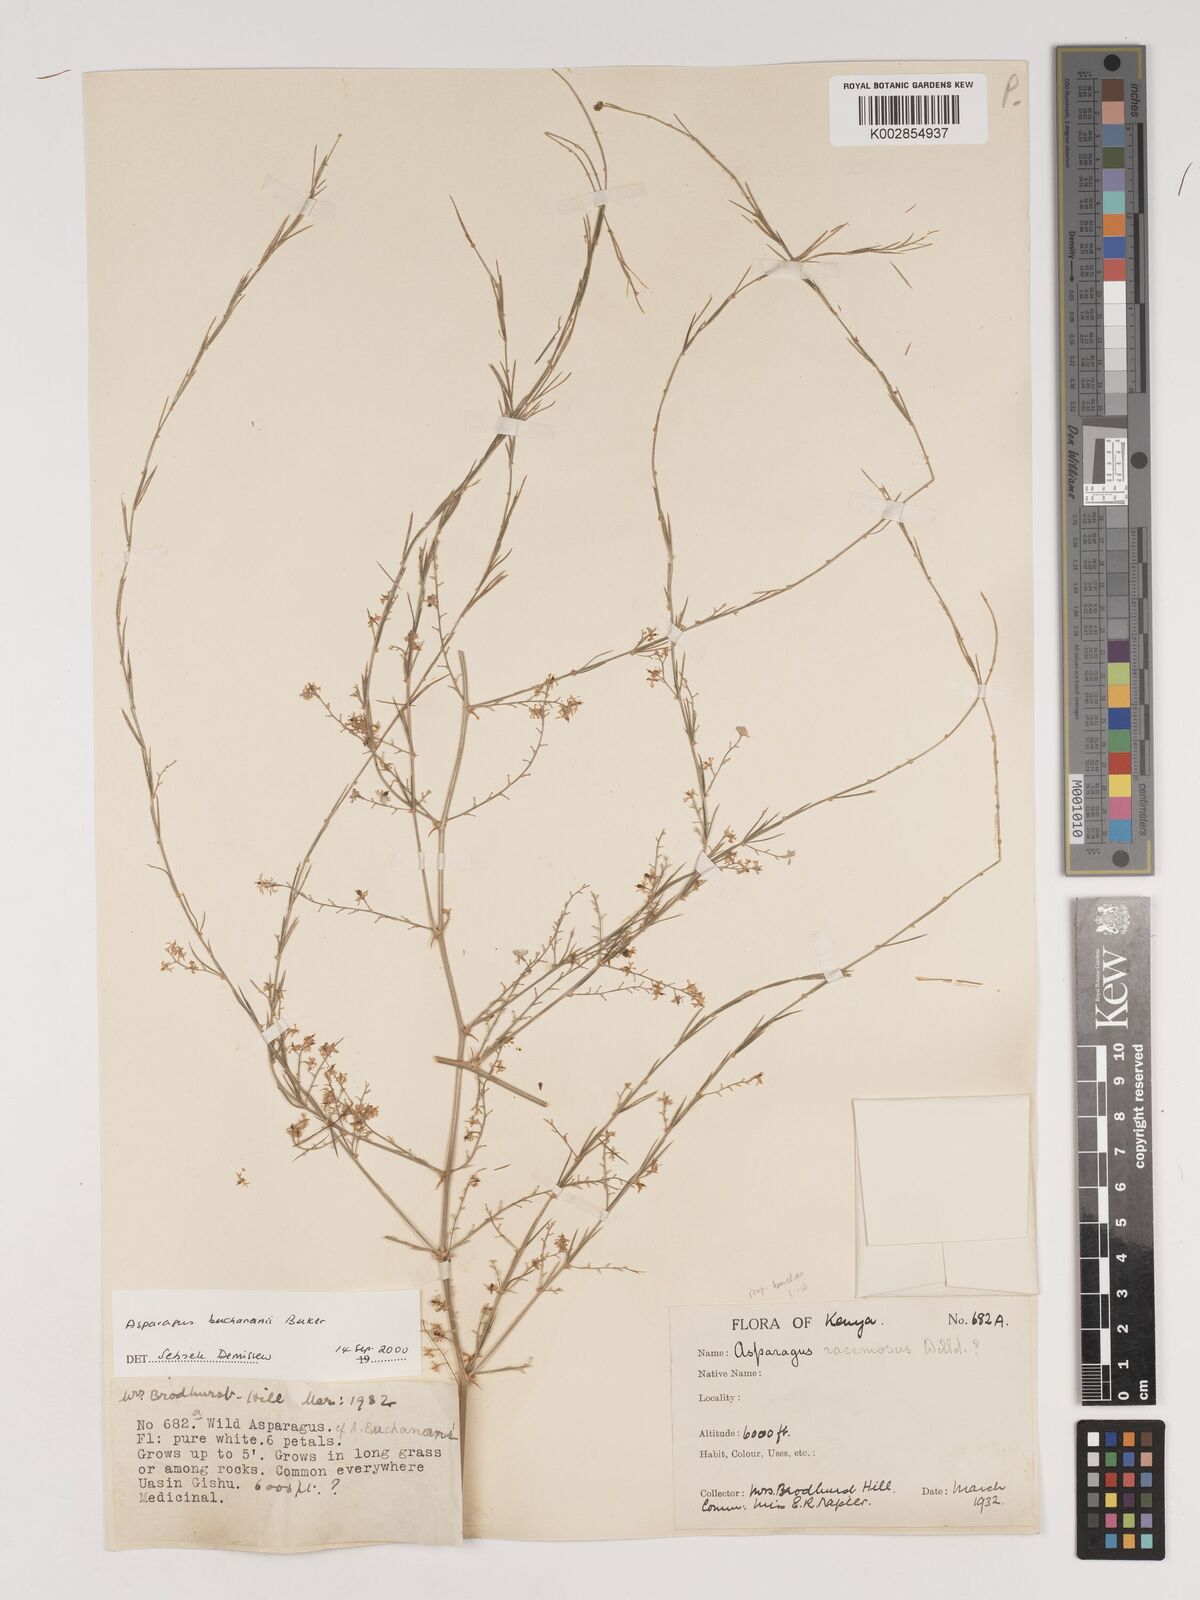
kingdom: Plantae
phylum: Tracheophyta
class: Liliopsida
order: Asparagales
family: Asparagaceae
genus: Asparagus
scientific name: Asparagus buchananii
